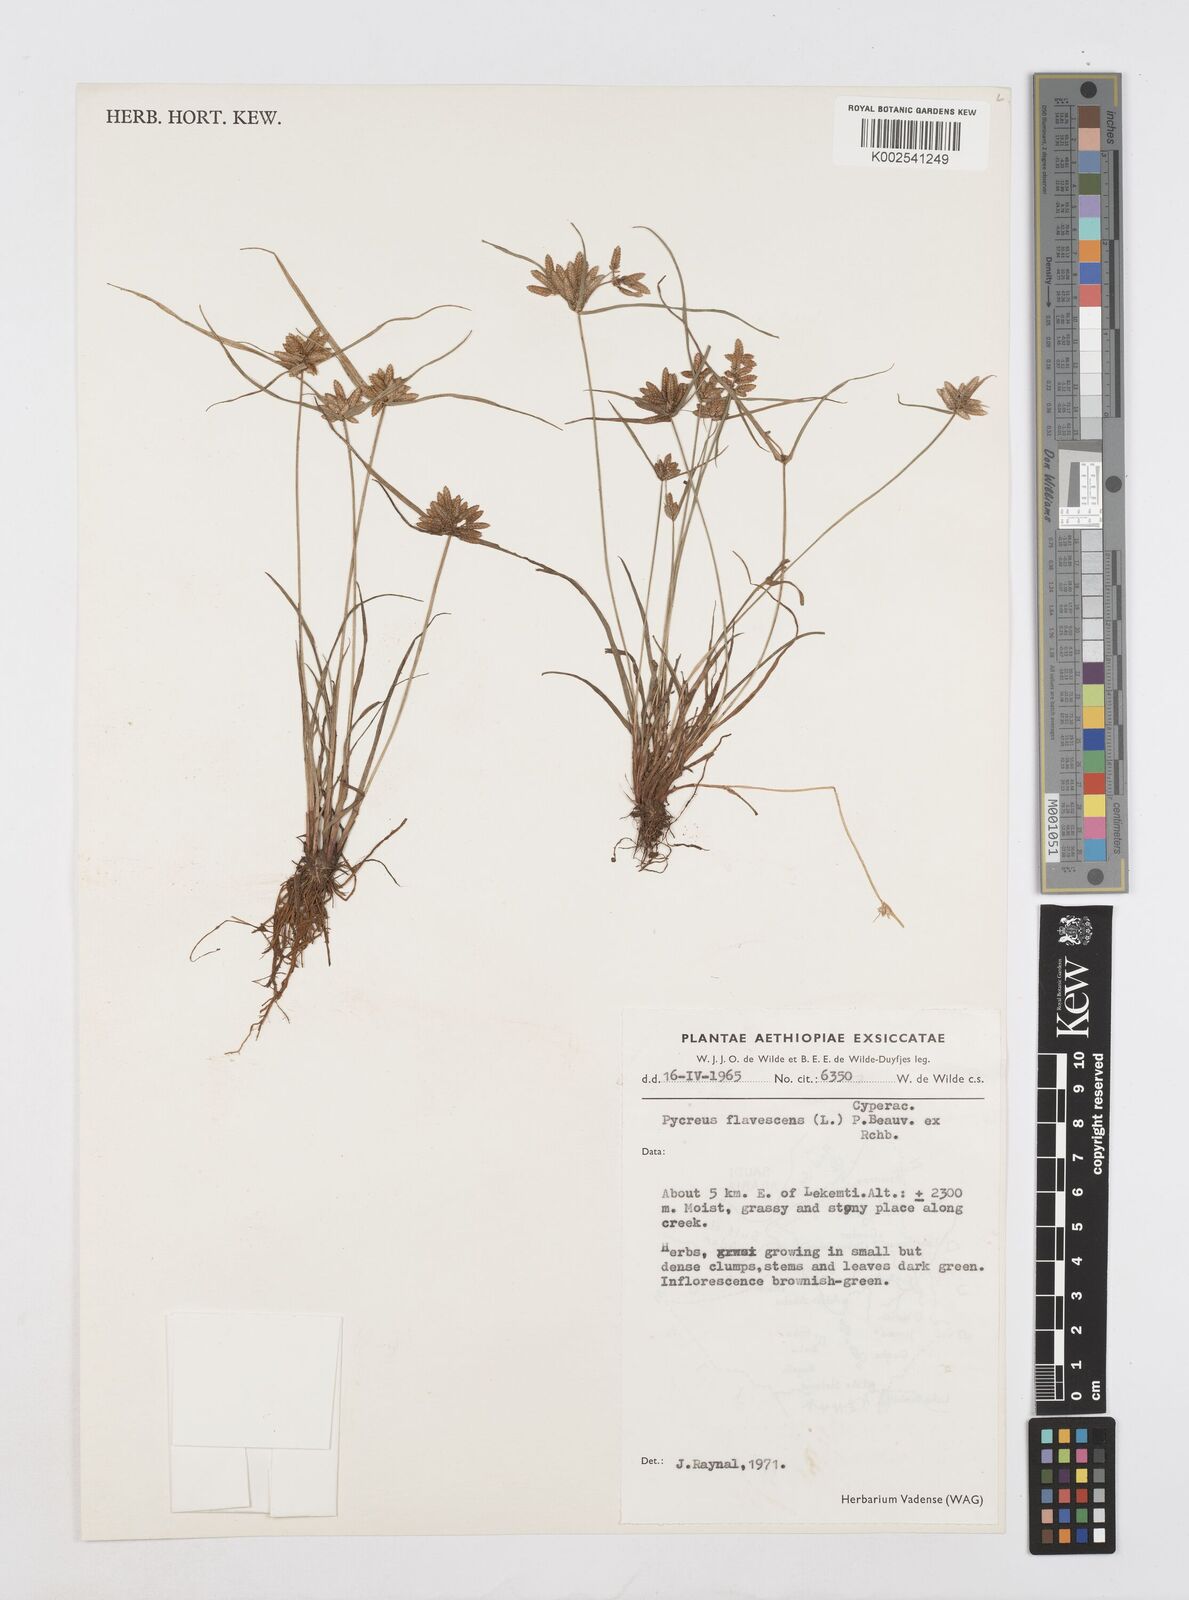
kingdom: Plantae
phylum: Tracheophyta
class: Liliopsida
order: Poales
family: Cyperaceae
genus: Cyperus
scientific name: Cyperus flavescens
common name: Yellow galingale
